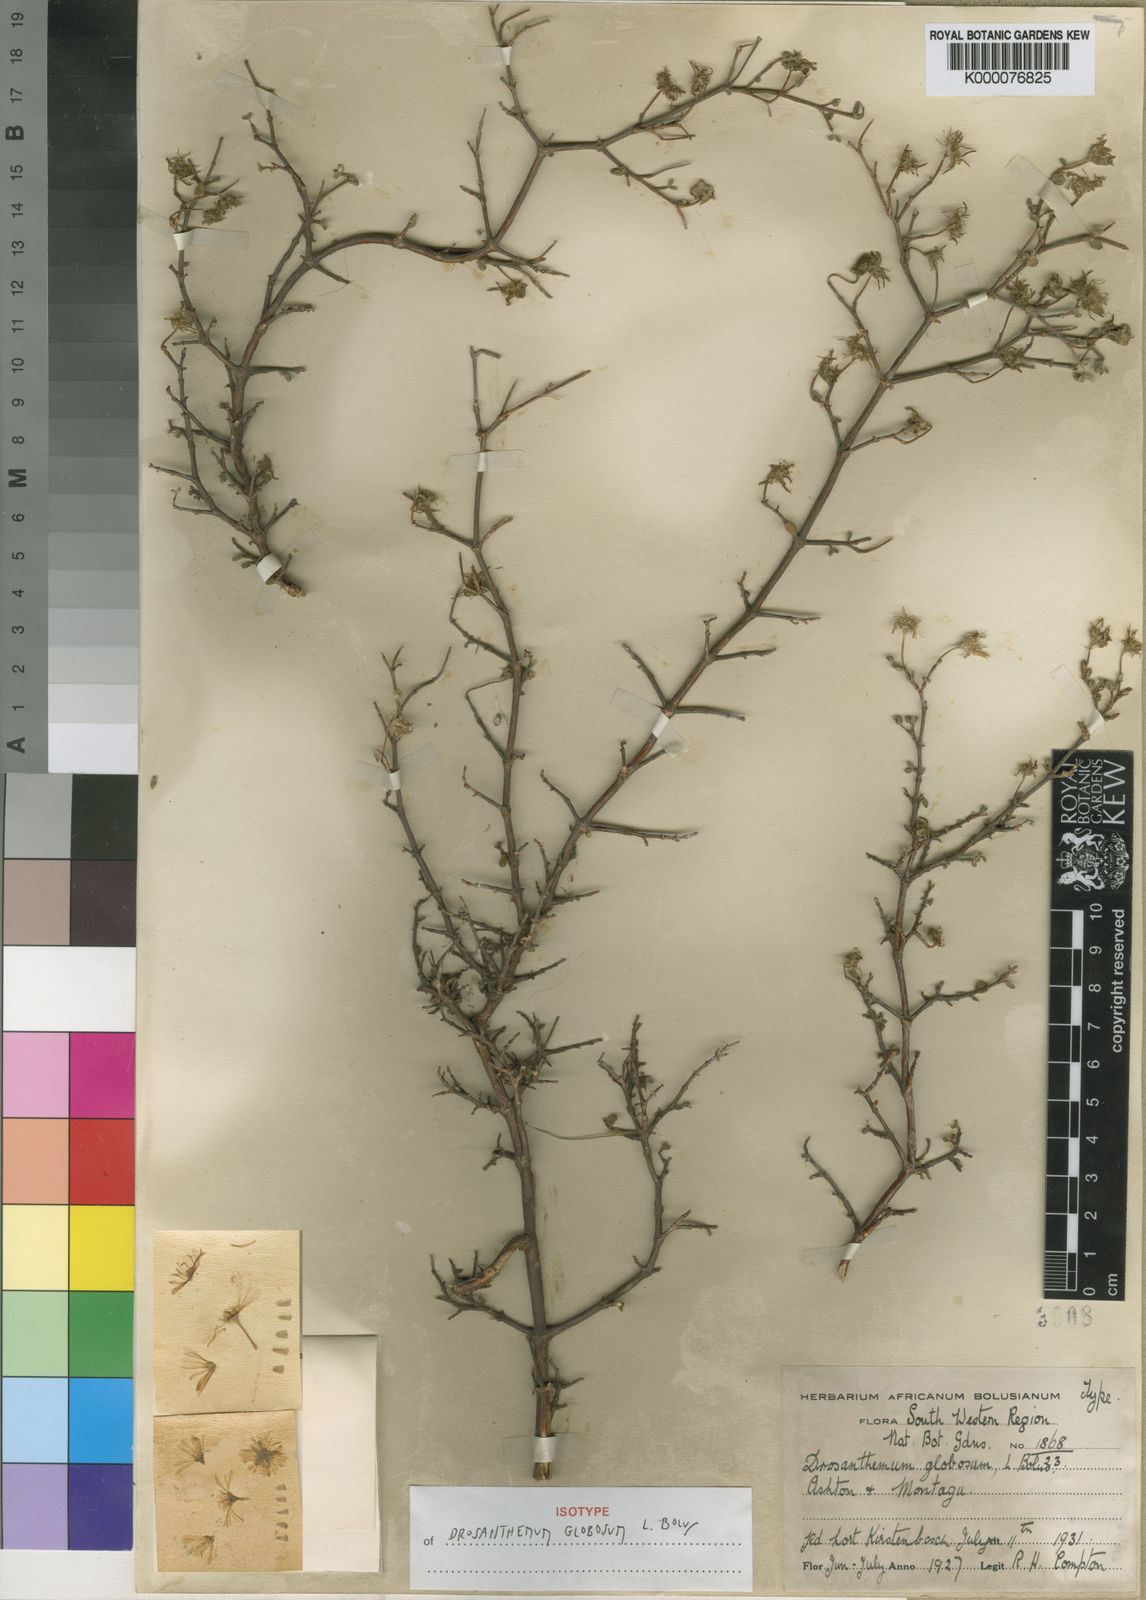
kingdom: Plantae
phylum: Tracheophyta
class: Magnoliopsida
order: Caryophyllales
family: Aizoaceae
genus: Drosanthemum
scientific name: Drosanthemum globosum
